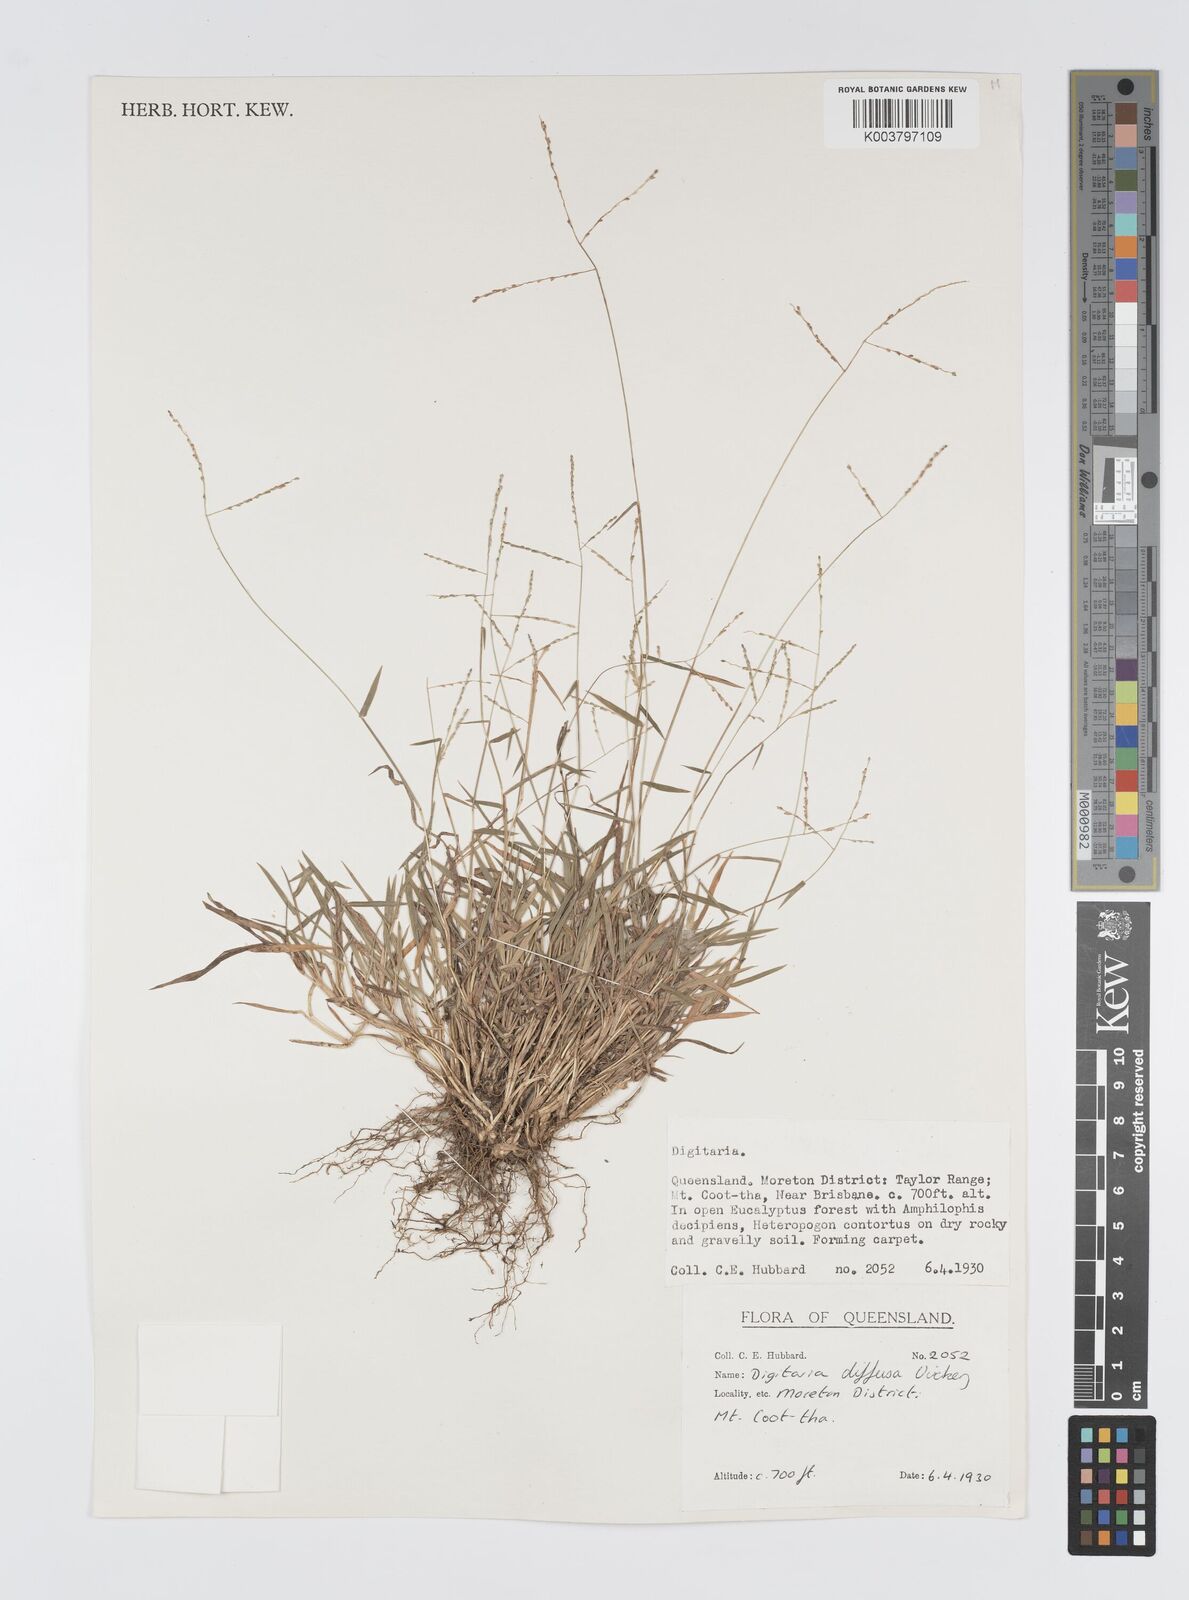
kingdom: Plantae
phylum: Tracheophyta
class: Liliopsida
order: Poales
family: Poaceae
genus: Digitaria
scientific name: Digitaria diffusa
